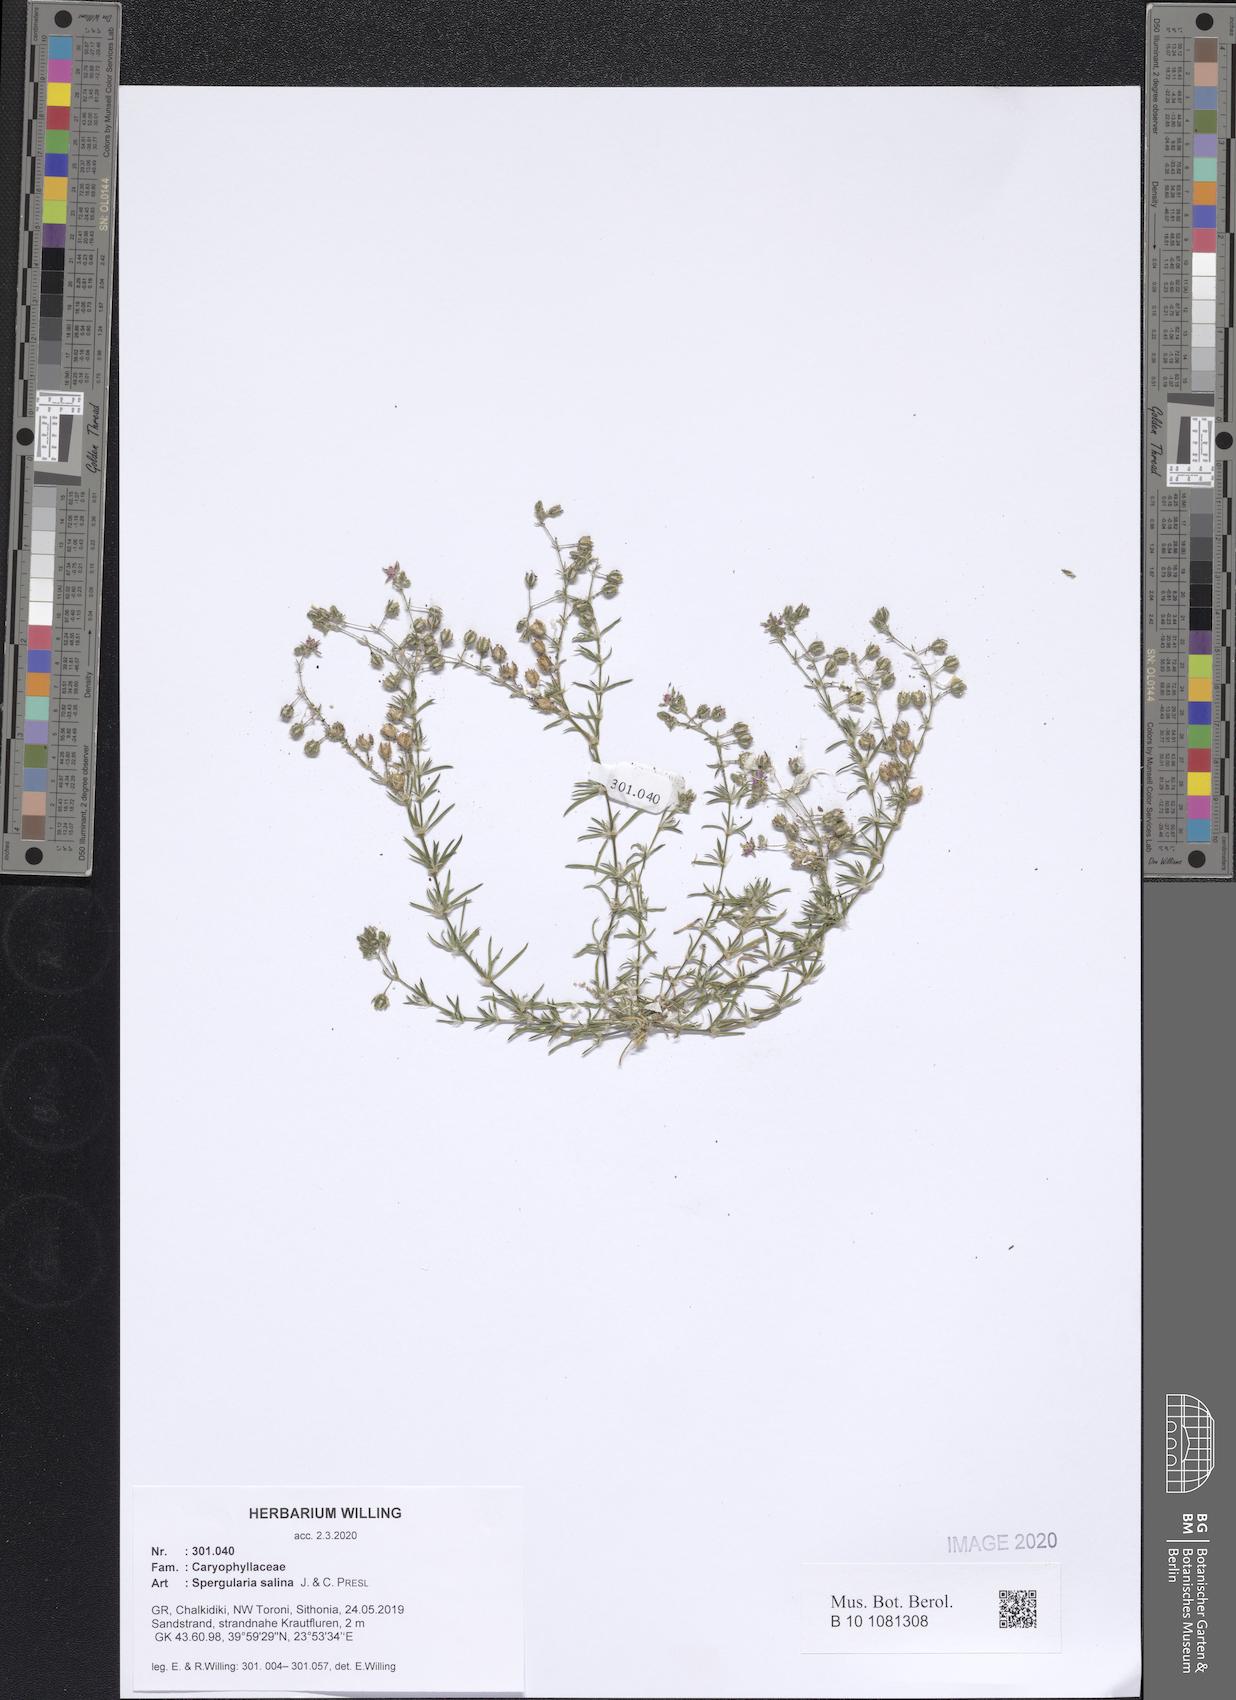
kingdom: Plantae
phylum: Tracheophyta
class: Magnoliopsida
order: Caryophyllales
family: Caryophyllaceae
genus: Spergularia
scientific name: Spergularia marina
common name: Lesser sea-spurrey
